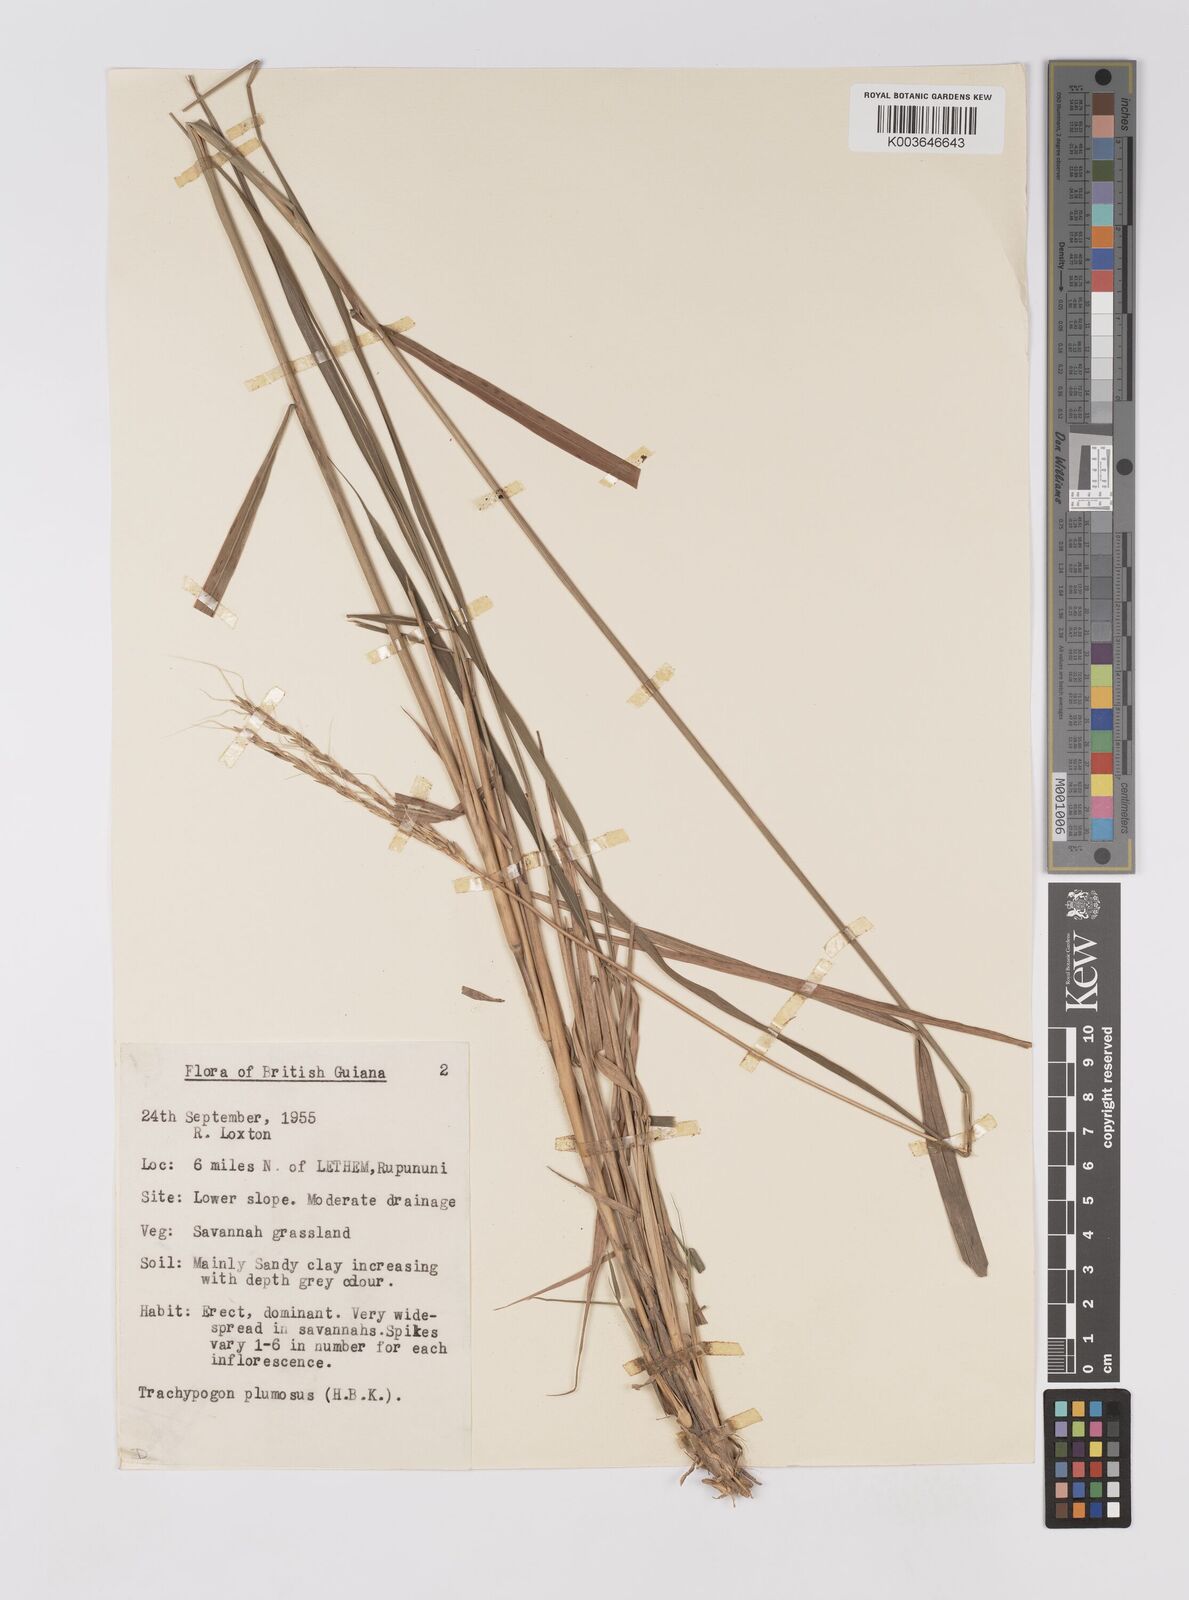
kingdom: Plantae
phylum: Tracheophyta
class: Liliopsida
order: Poales
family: Poaceae
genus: Trachypogon
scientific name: Trachypogon spicatus
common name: Crinkle-awn
